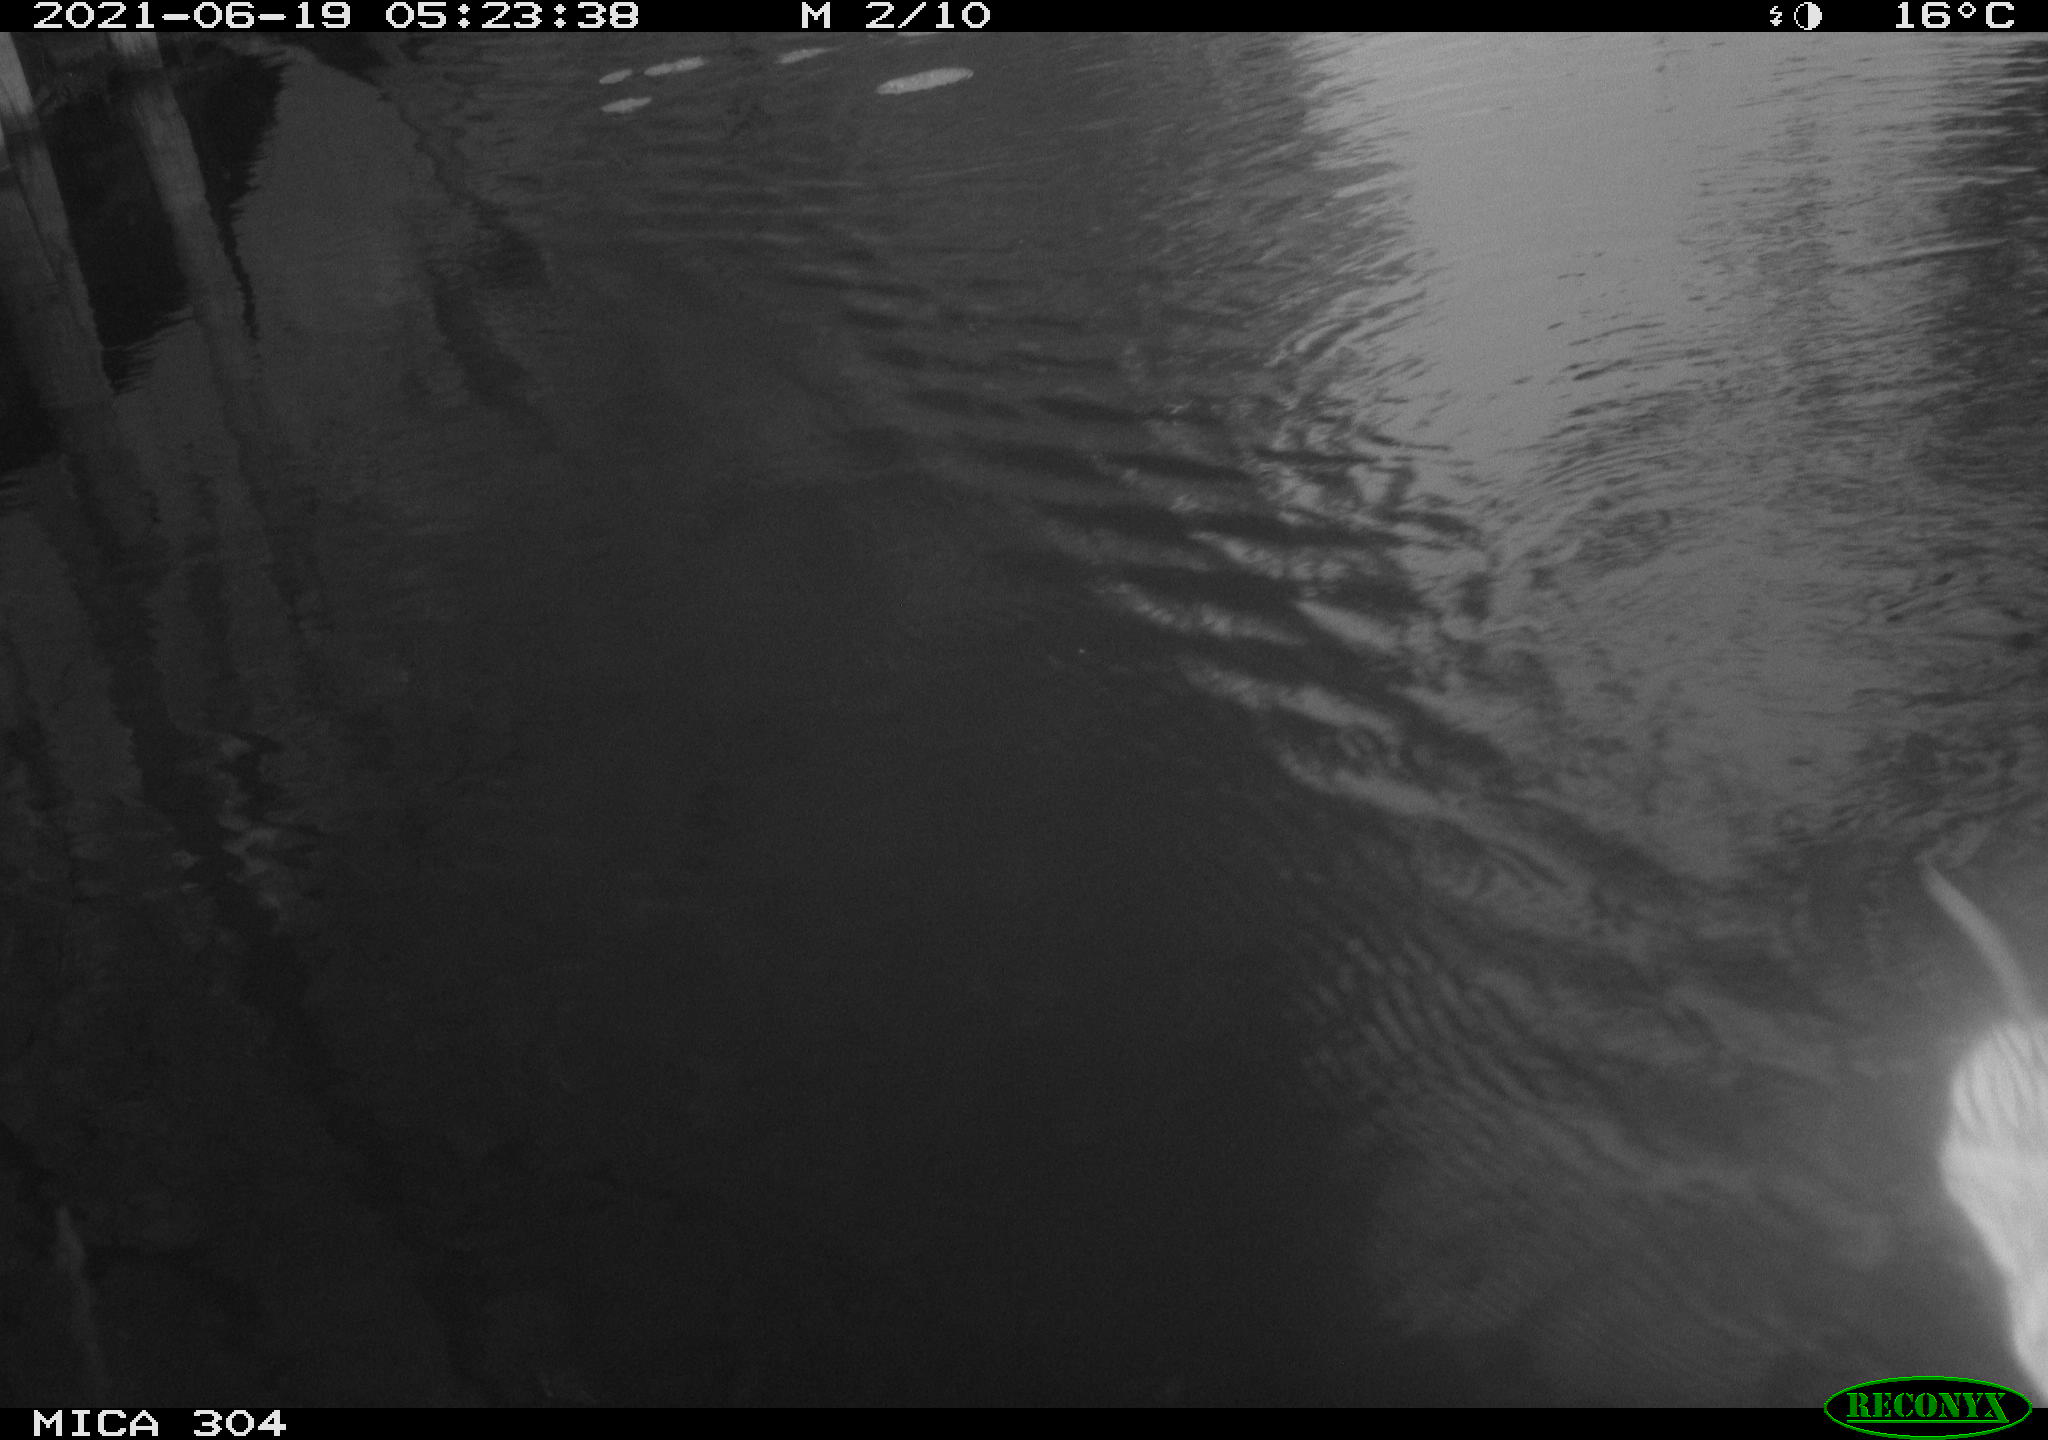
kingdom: Animalia
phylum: Chordata
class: Mammalia
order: Rodentia
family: Cricetidae
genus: Ondatra
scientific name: Ondatra zibethicus
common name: Muskrat
